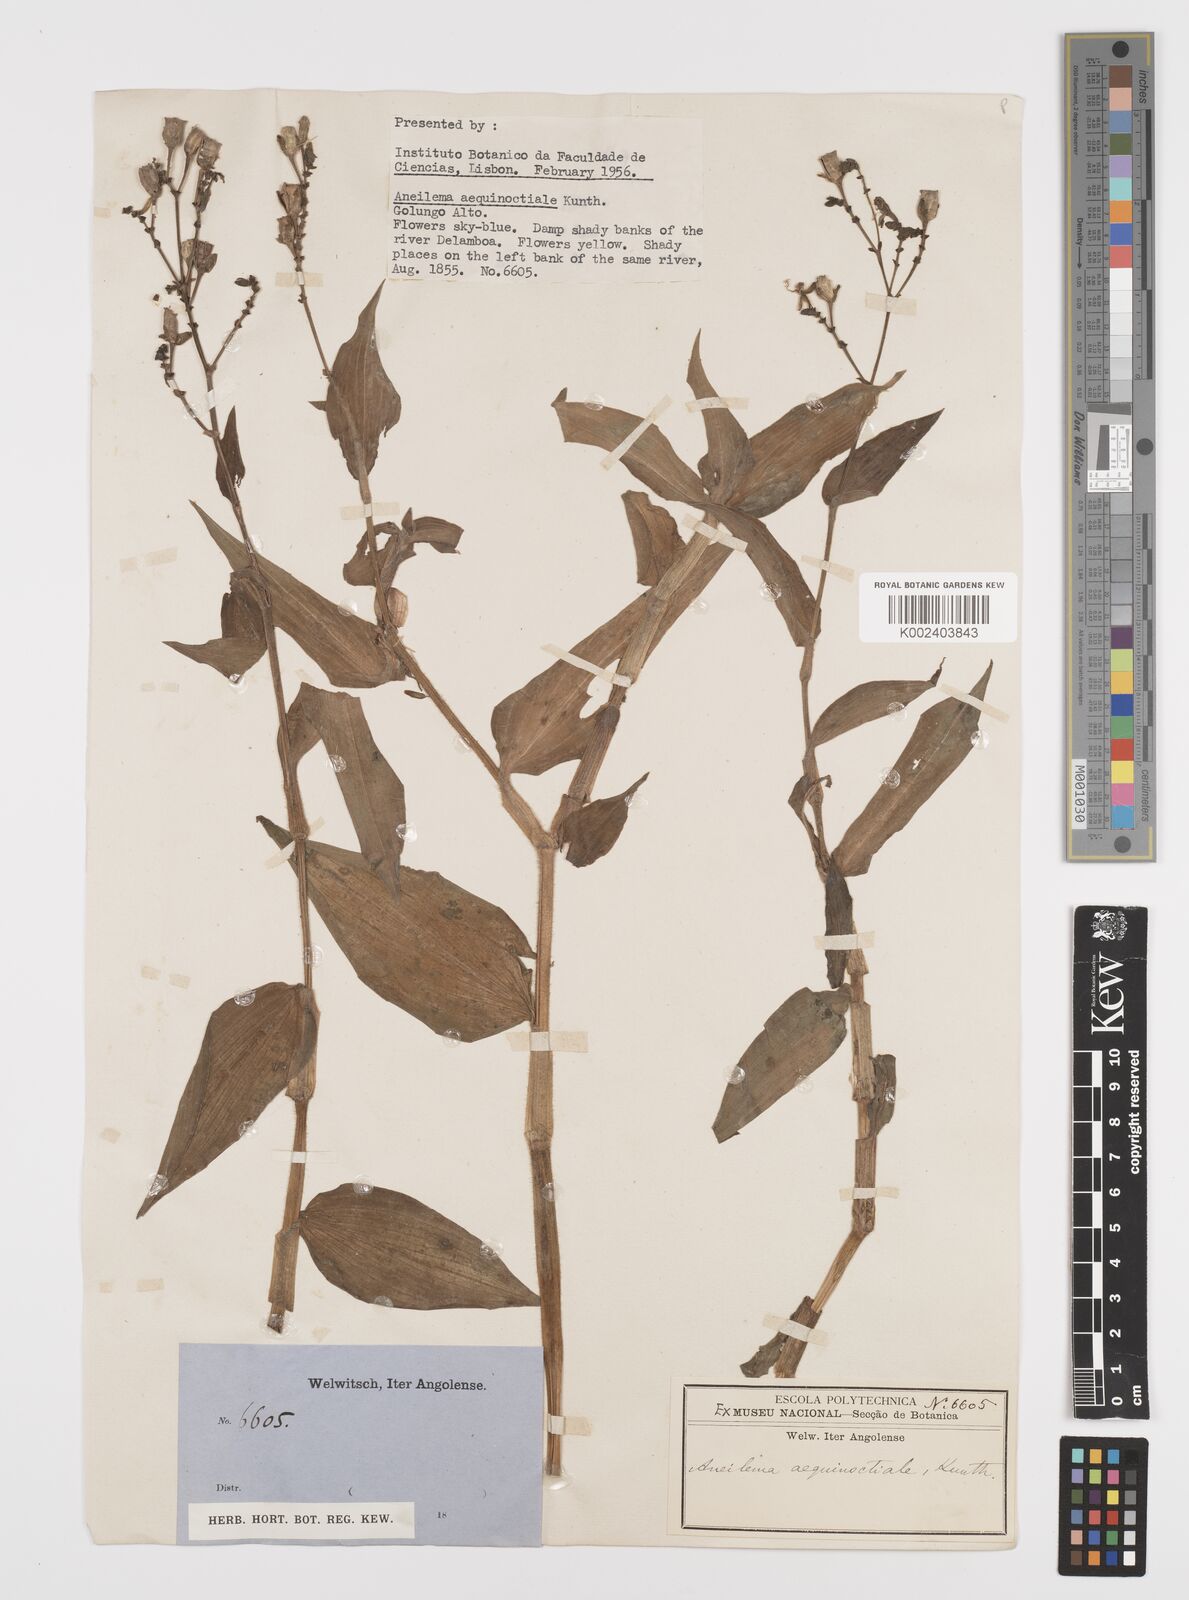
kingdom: Plantae
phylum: Tracheophyta
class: Liliopsida
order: Commelinales
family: Commelinaceae
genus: Aneilema
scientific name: Aneilema aequinoctiale
